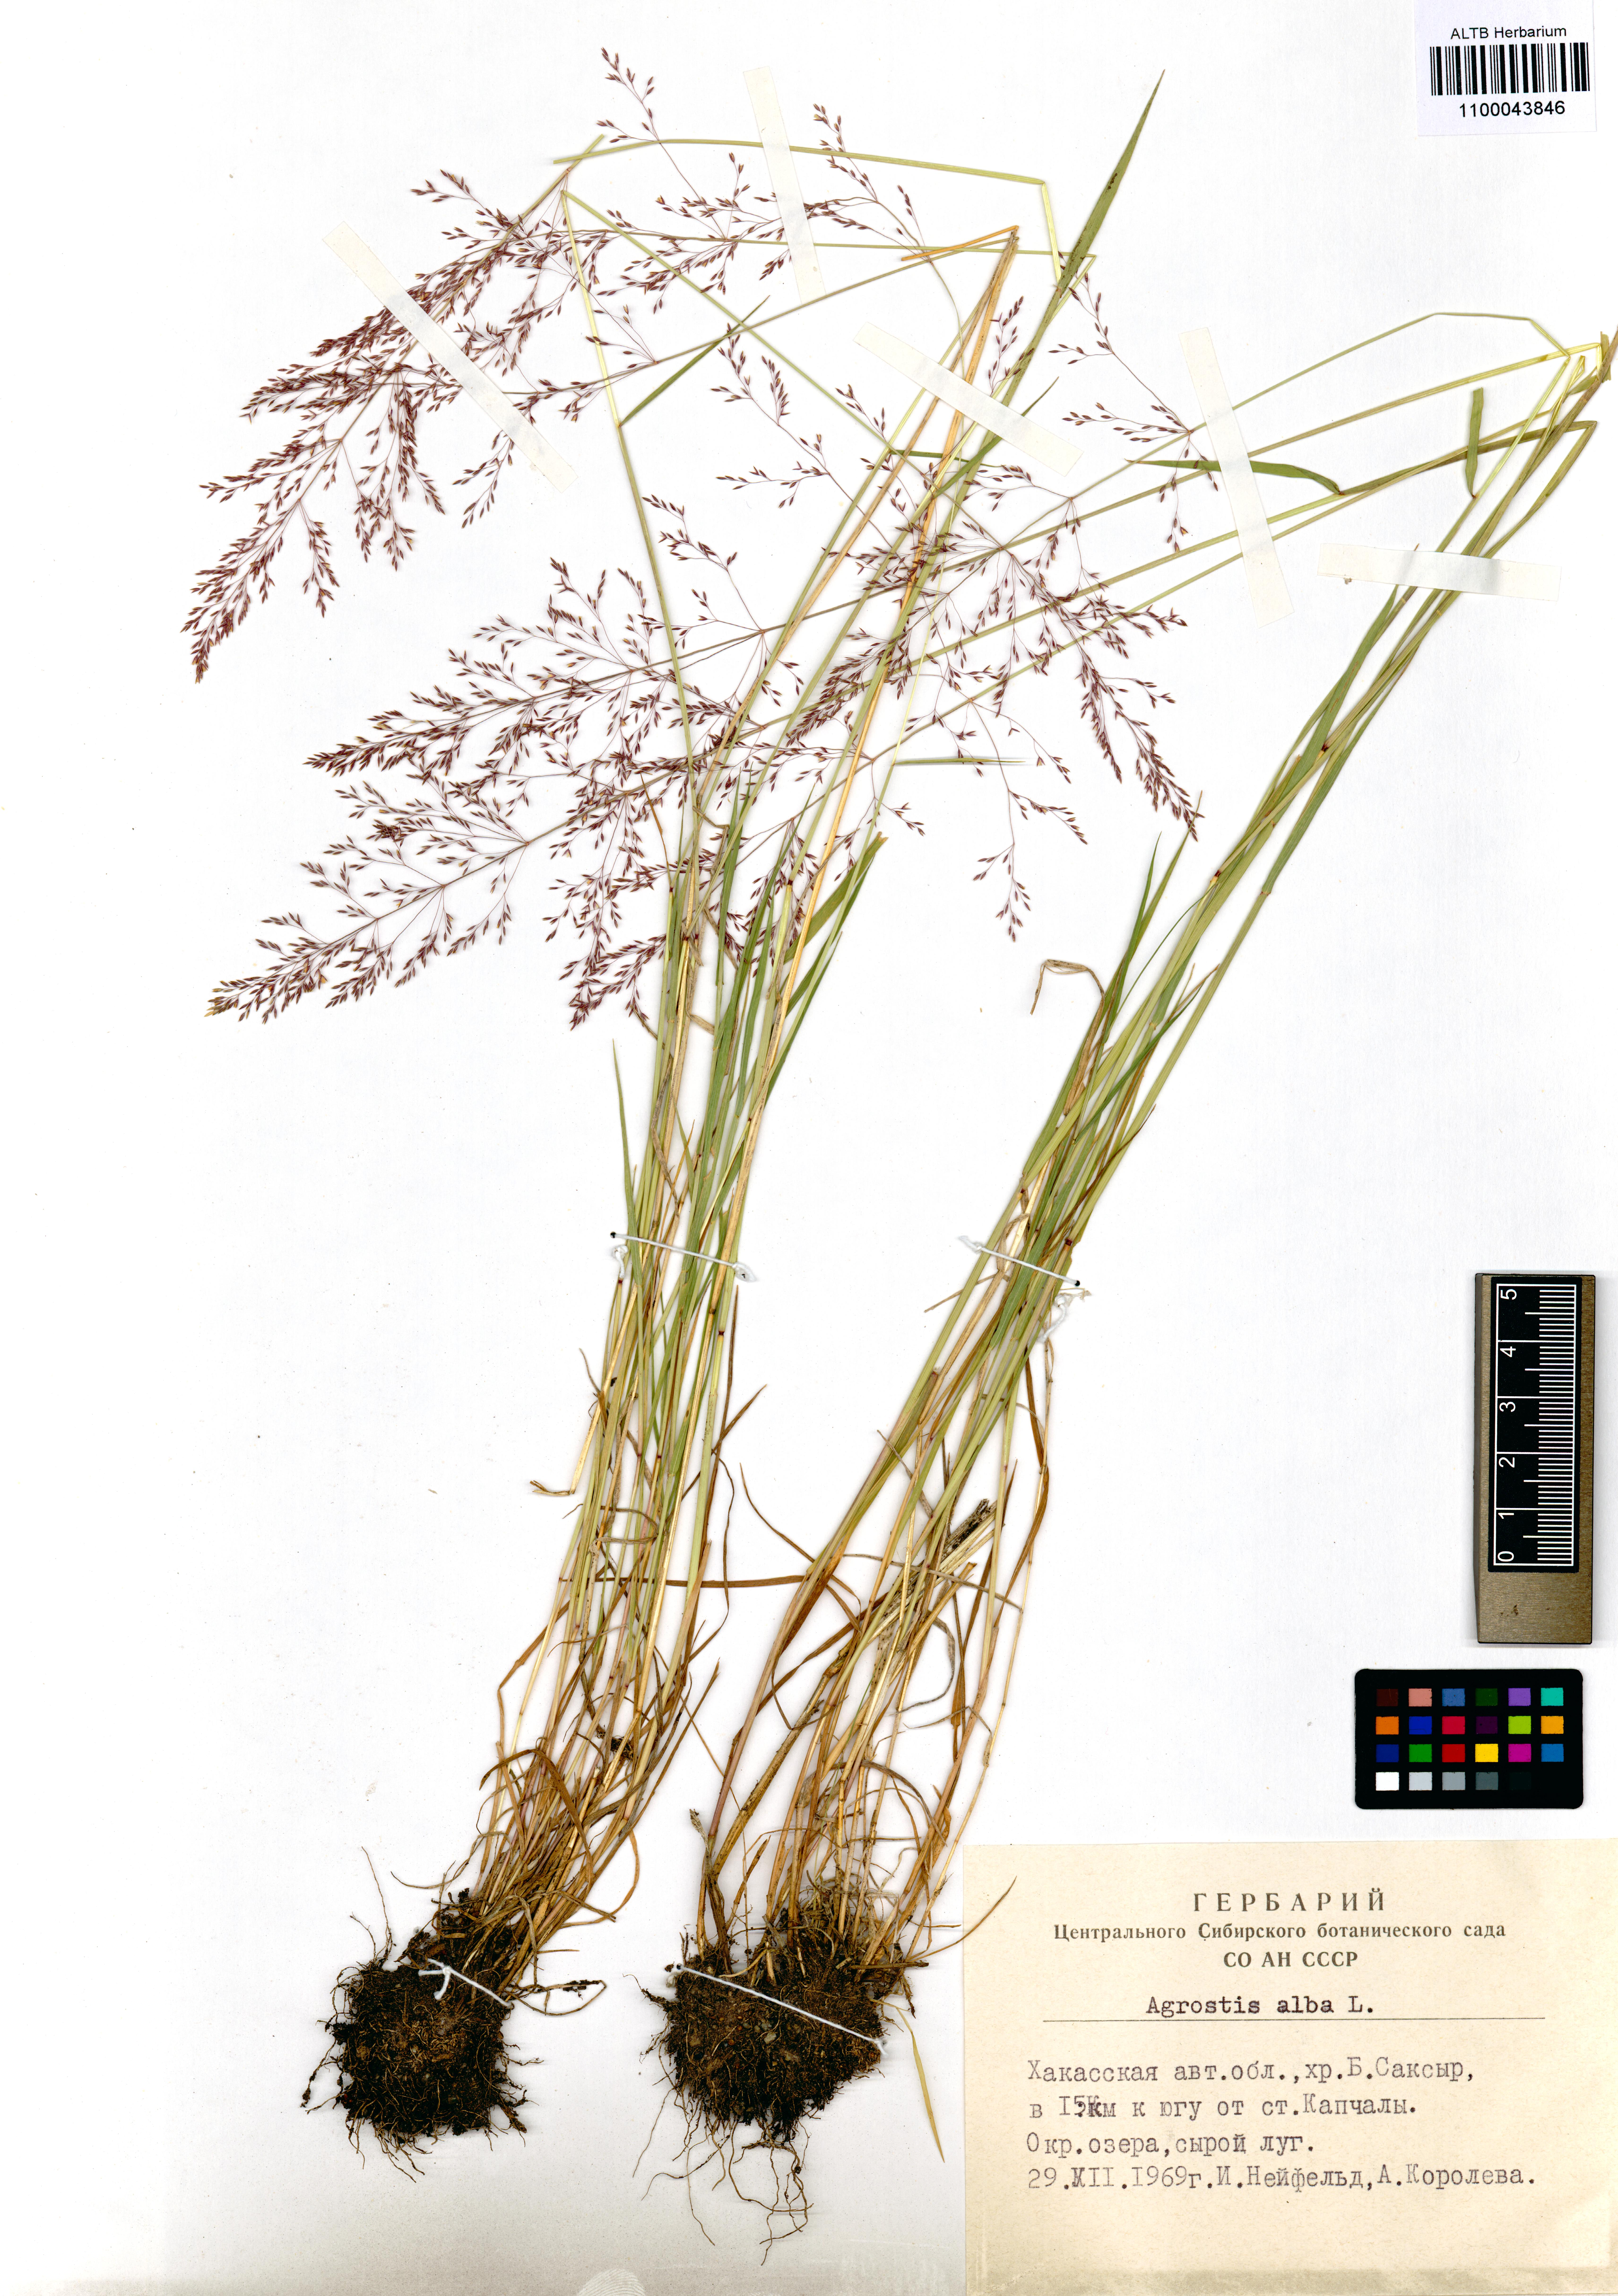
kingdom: Plantae
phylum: Tracheophyta
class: Liliopsida
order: Poales
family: Poaceae
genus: Agrostis
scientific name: Agrostis gigantea
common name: Black bent
